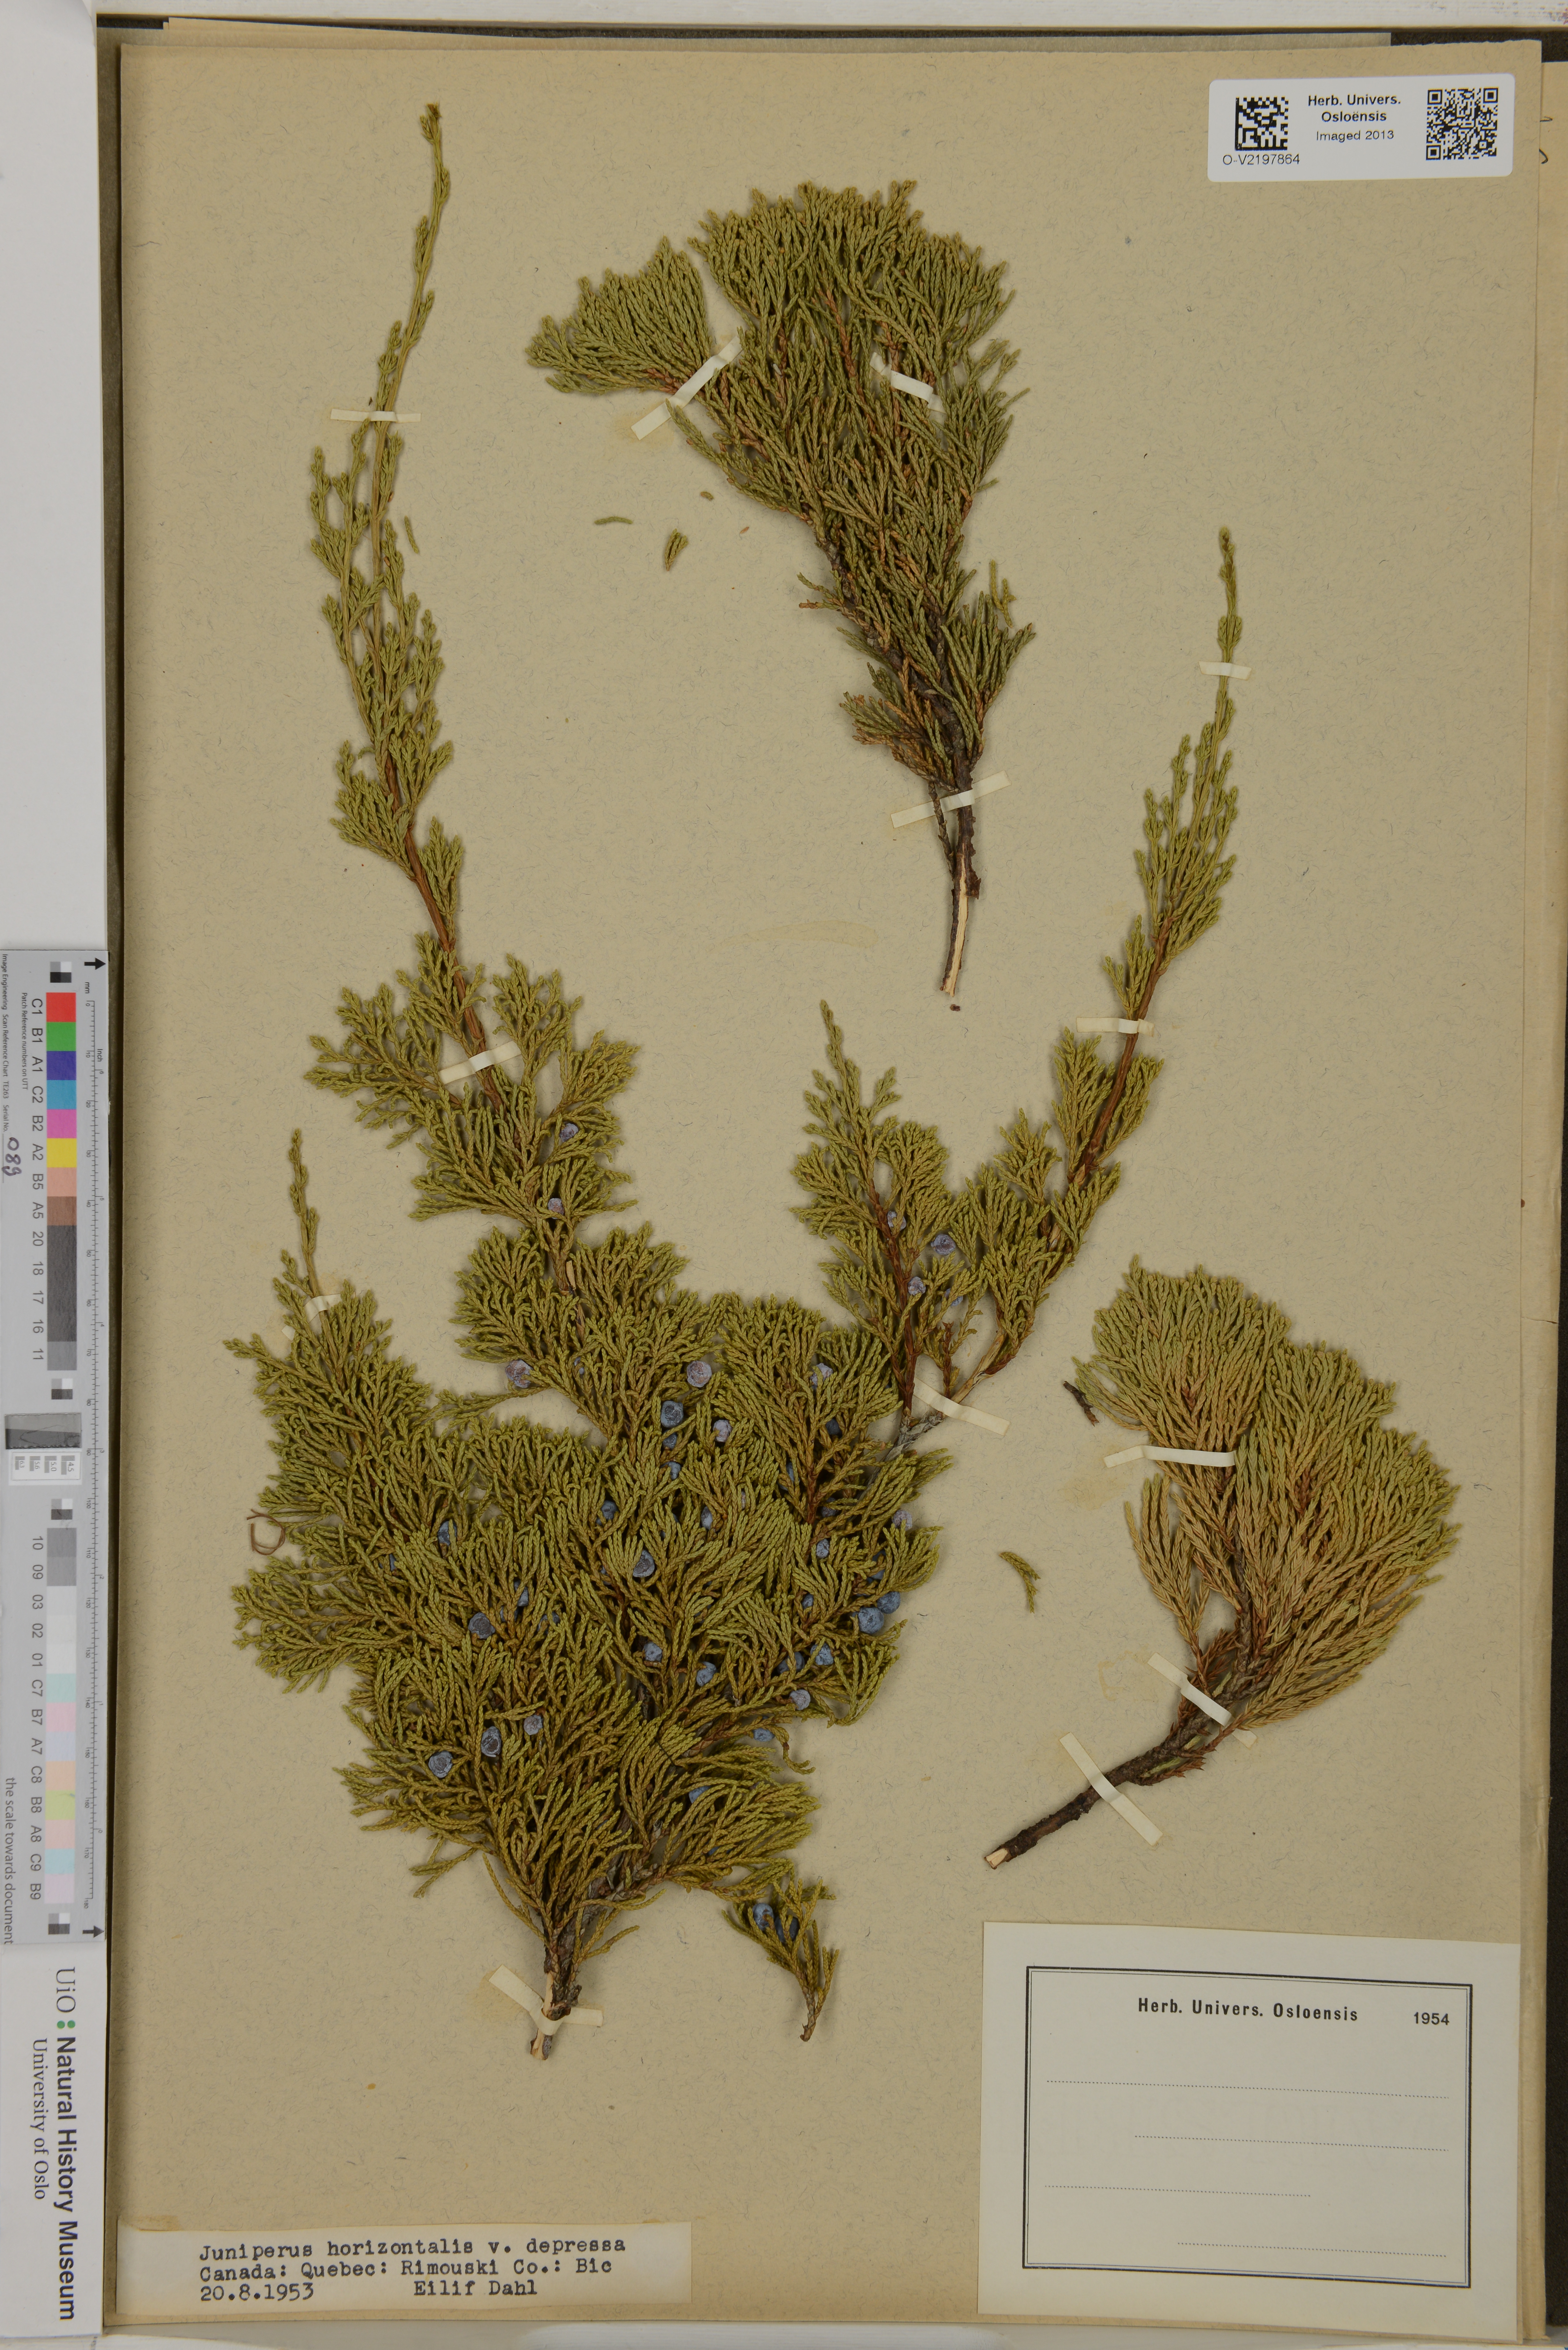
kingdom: Plantae
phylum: Tracheophyta
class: Pinopsida
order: Pinales
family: Cupressaceae
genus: Juniperus
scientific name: Juniperus horizontalis
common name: Creeping juniper
